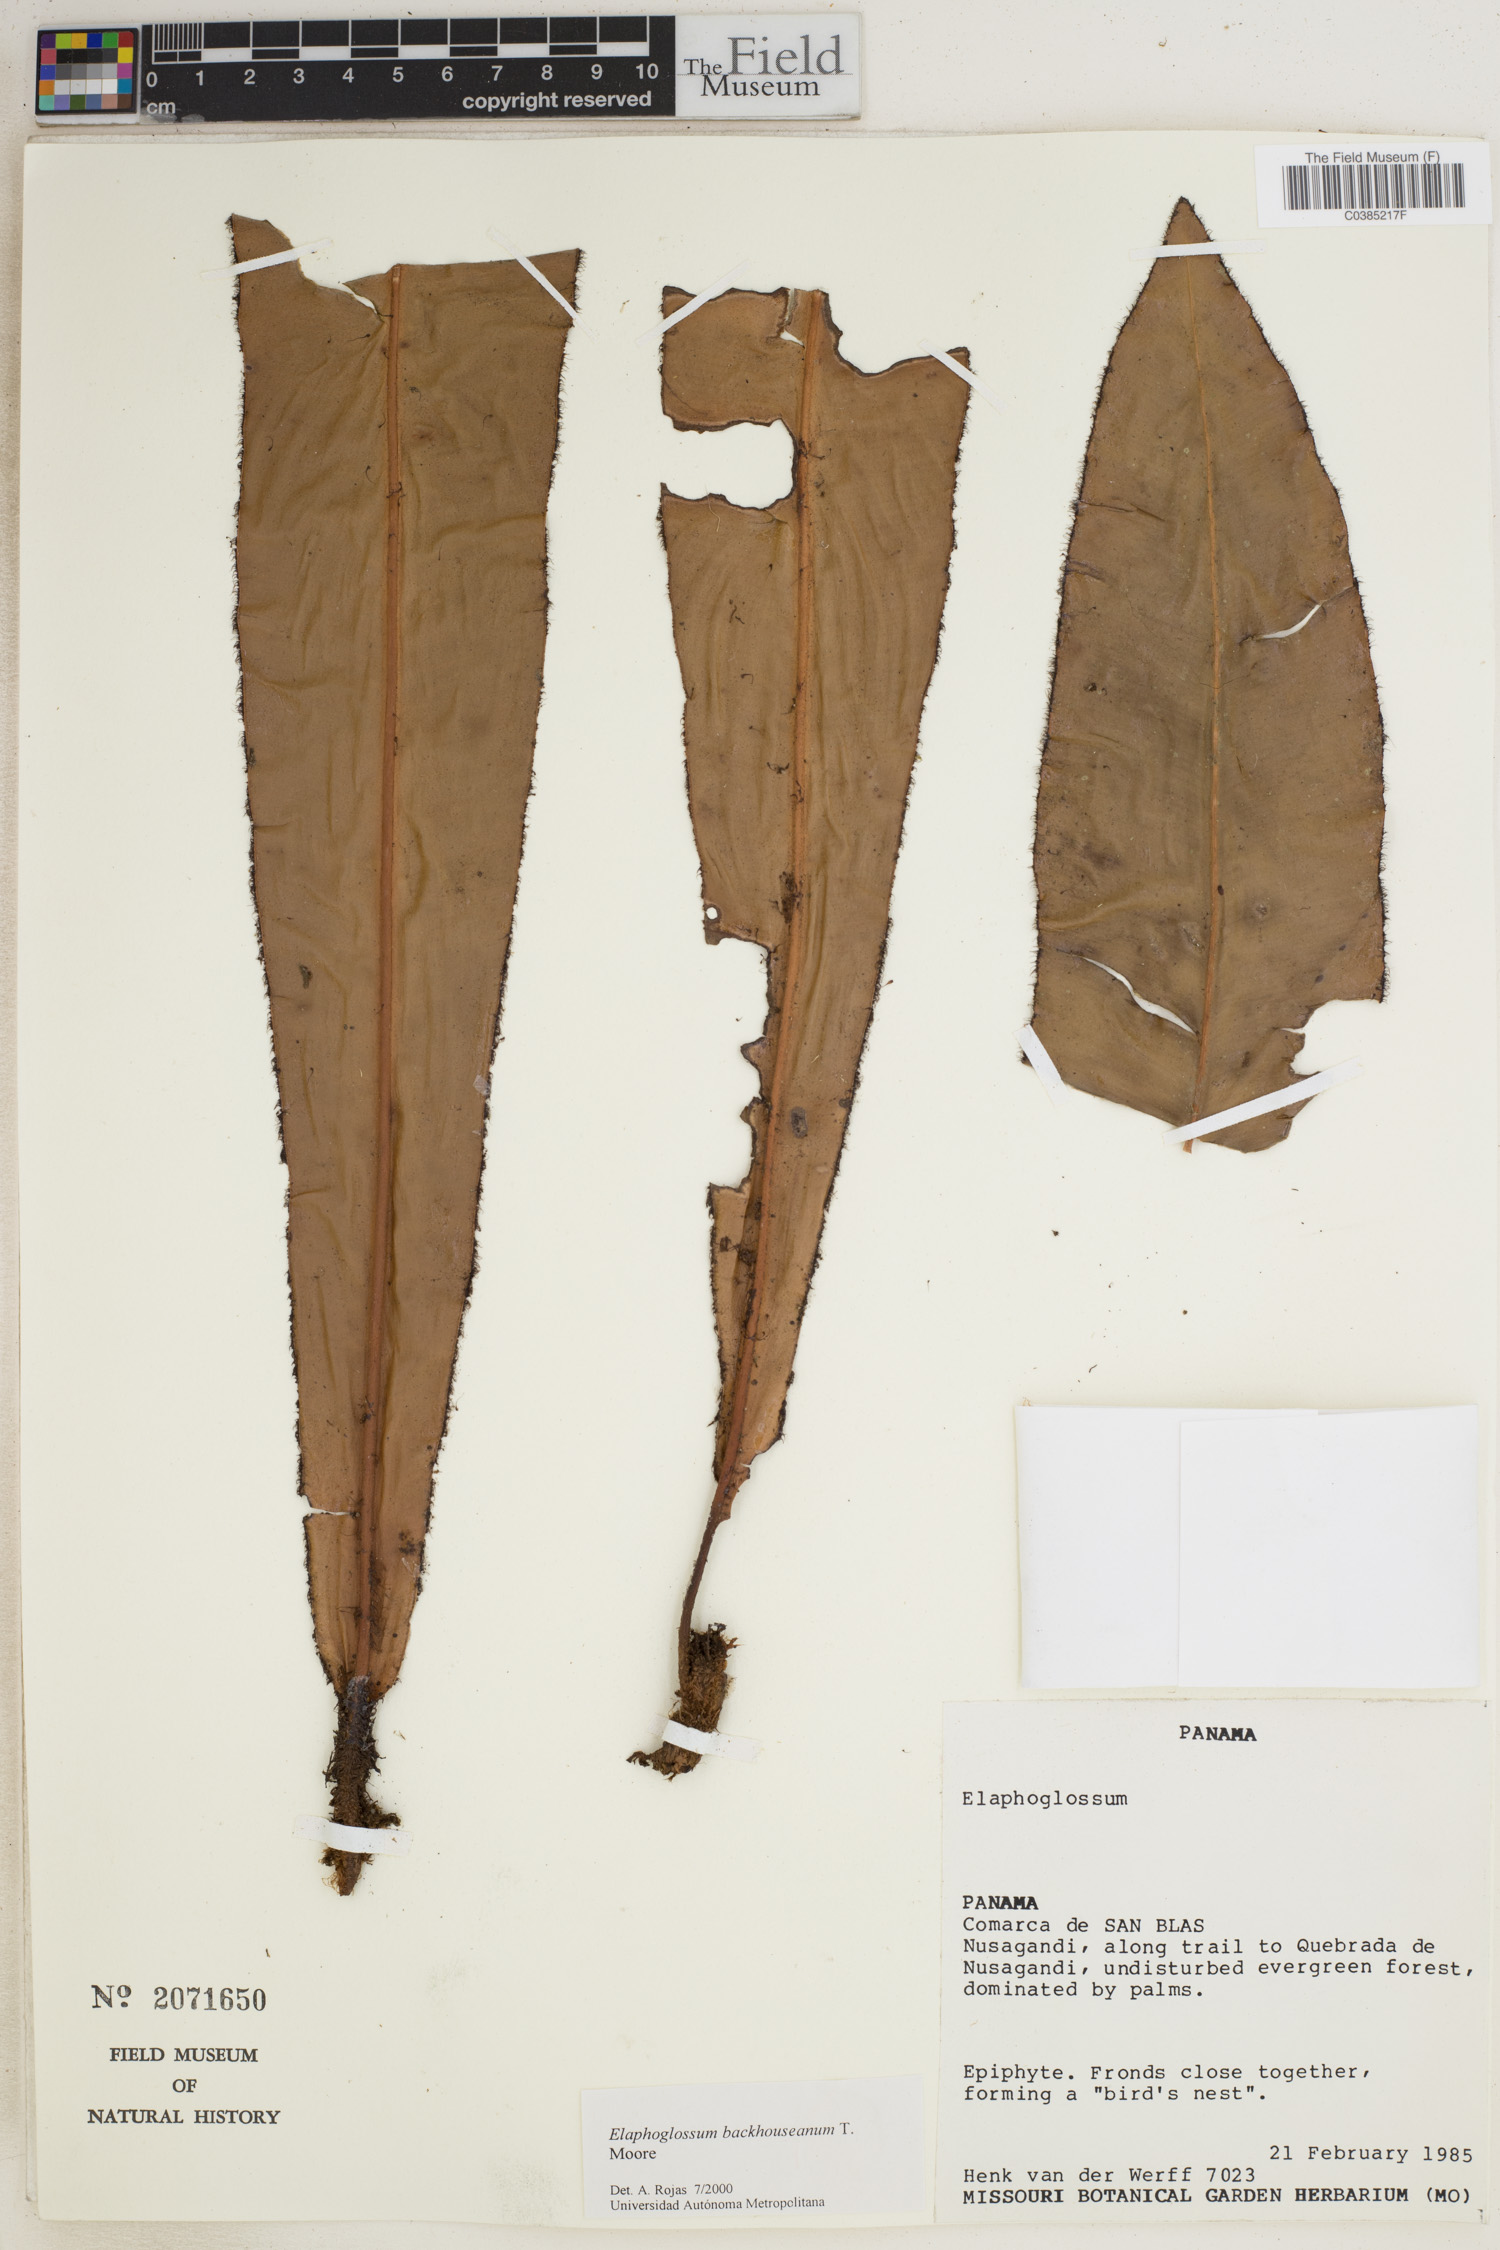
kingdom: Plantae
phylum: Tracheophyta
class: Polypodiopsida
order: Polypodiales
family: Dryopteridaceae
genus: Elaphoglossum
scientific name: Elaphoglossum backhouseanum
